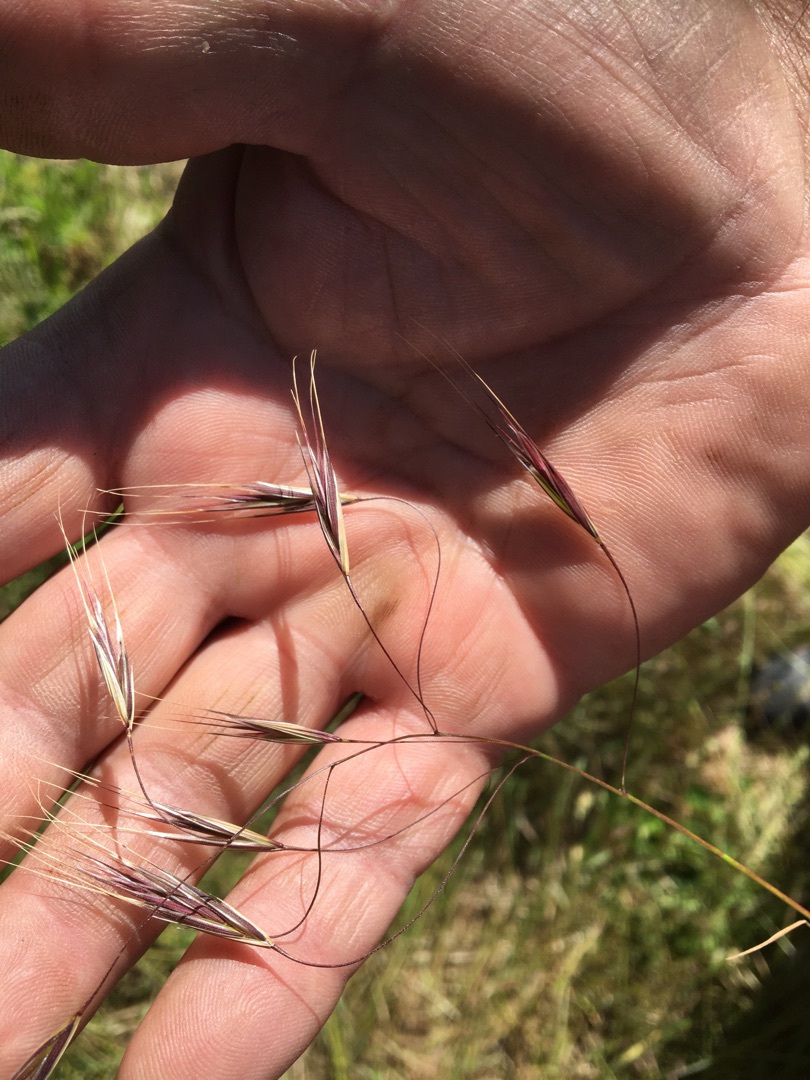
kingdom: Plantae
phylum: Tracheophyta
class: Liliopsida
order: Poales
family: Poaceae
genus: Bromus
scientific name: Bromus sterilis
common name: Gold hejre
